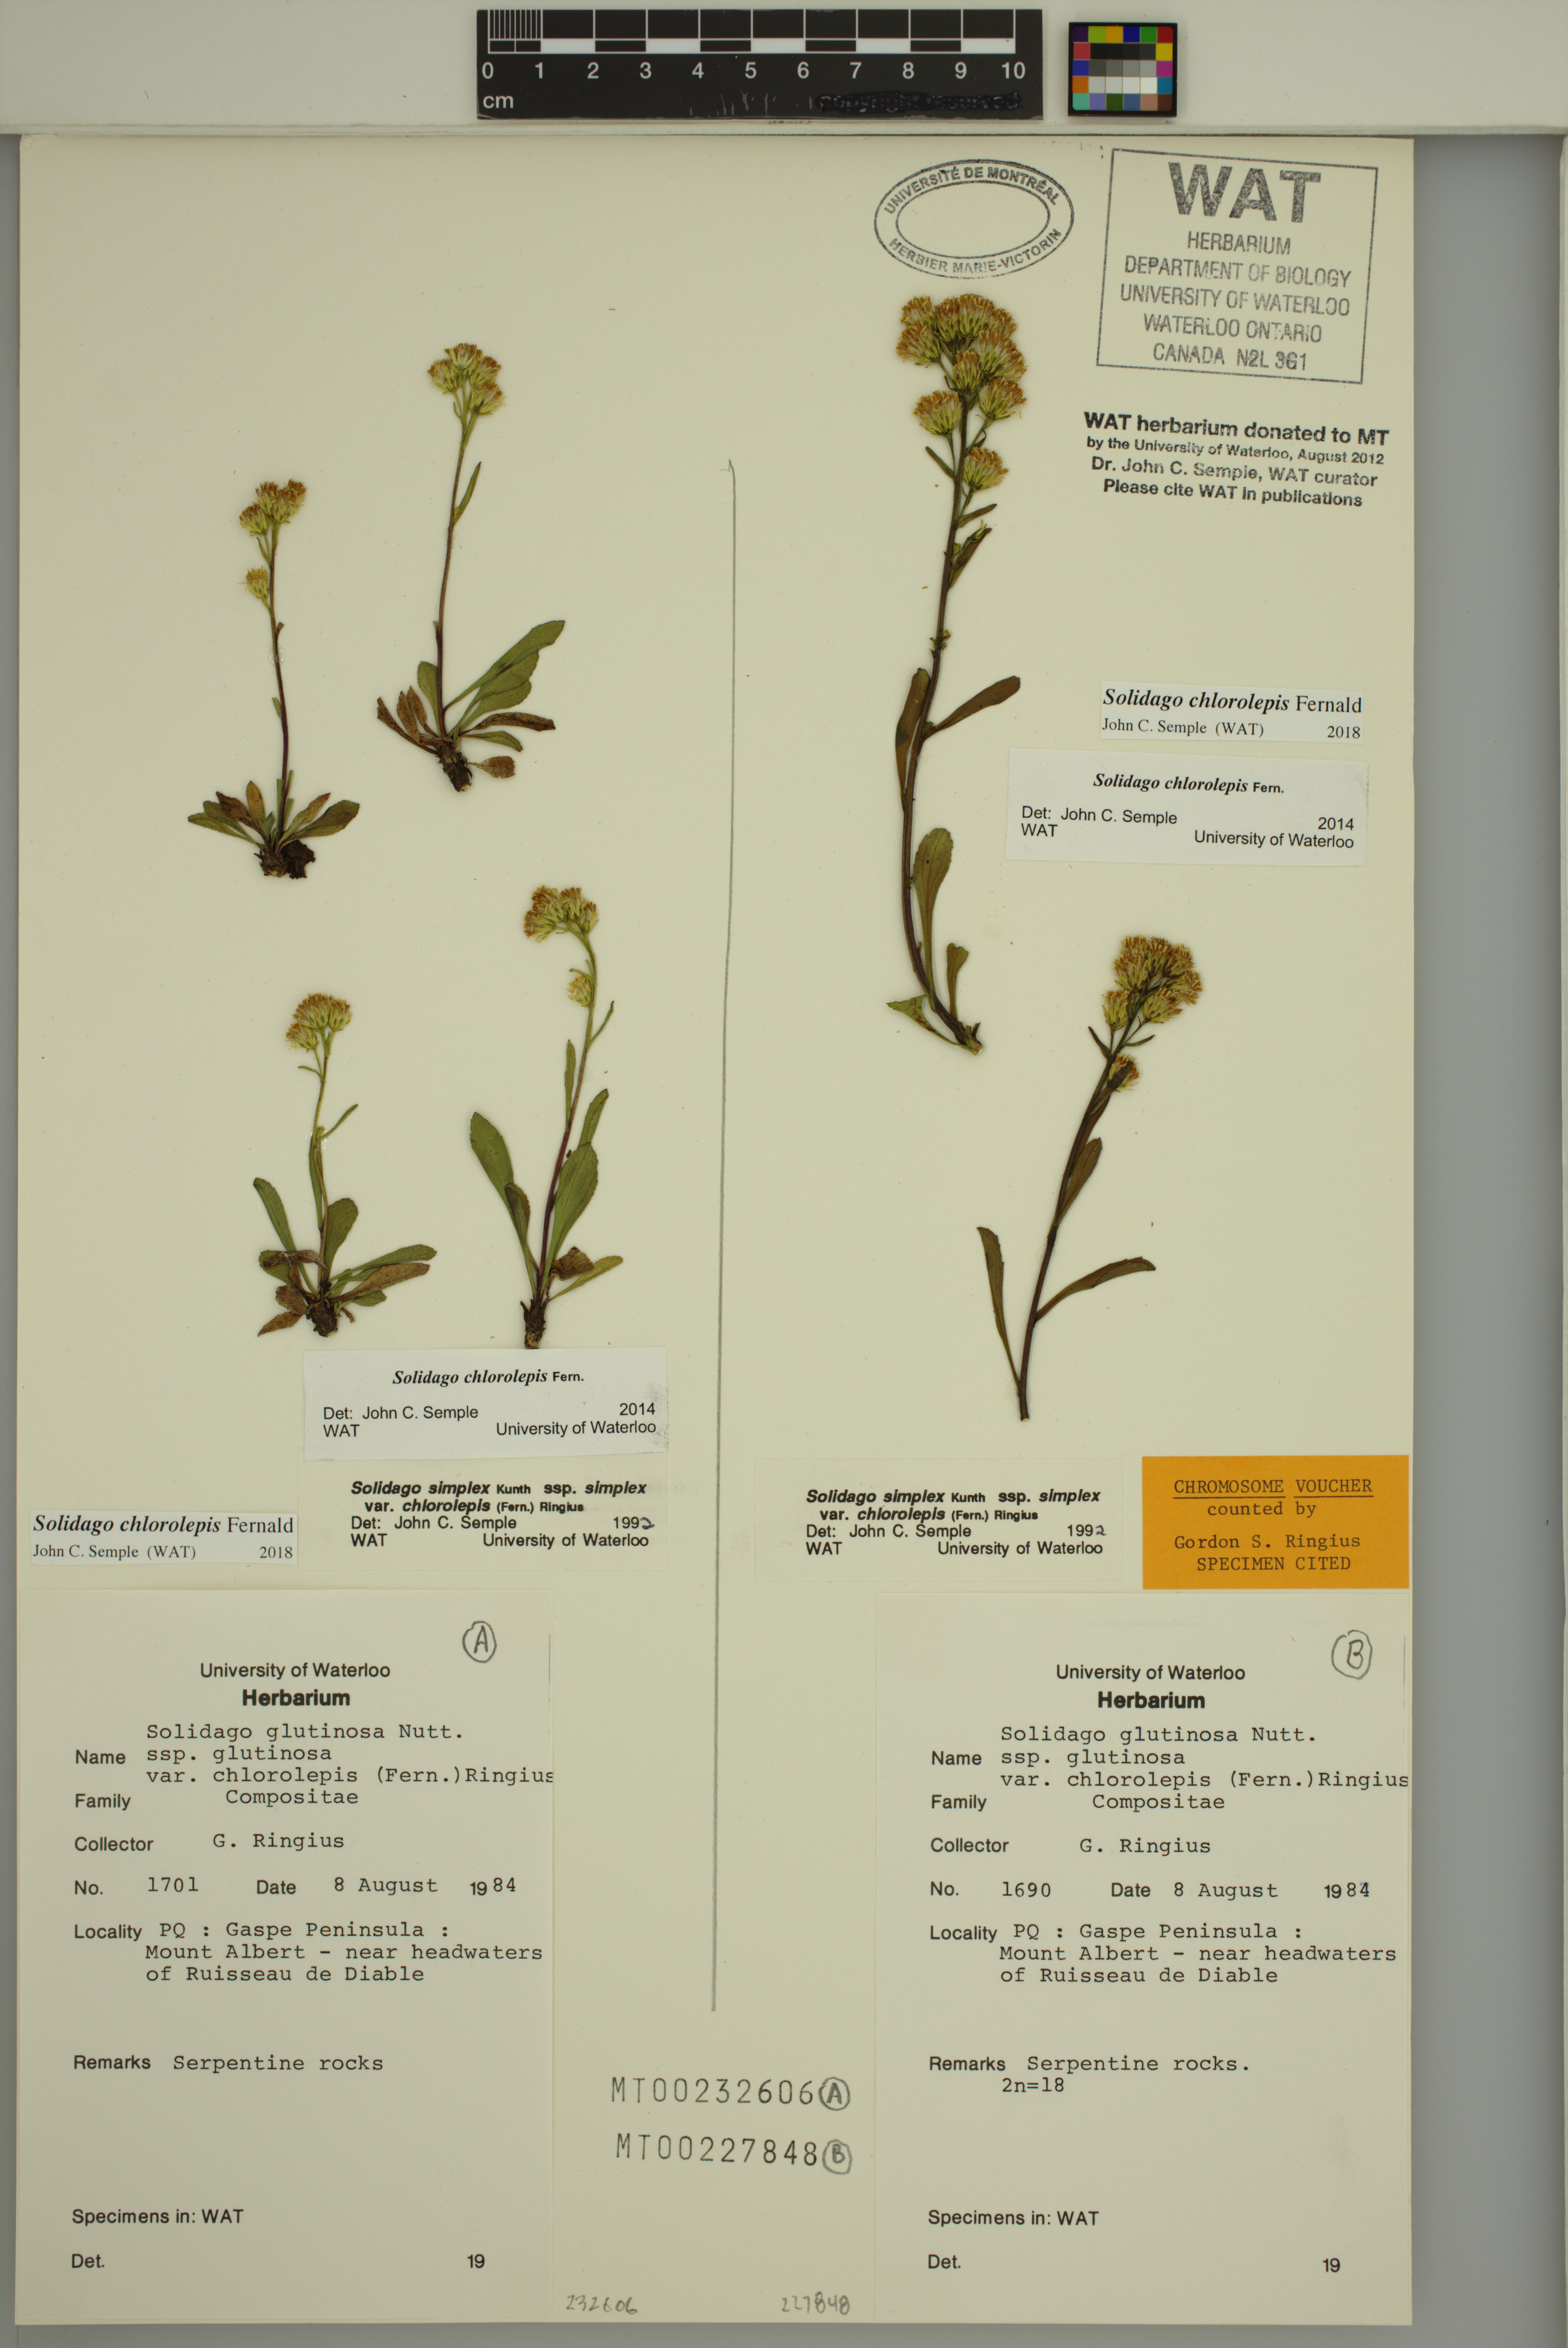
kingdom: Plantae
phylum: Tracheophyta
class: Magnoliopsida
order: Asterales
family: Asteraceae
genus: Solidago
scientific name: Solidago chlorolepis
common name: Mt. albert goldenrod
